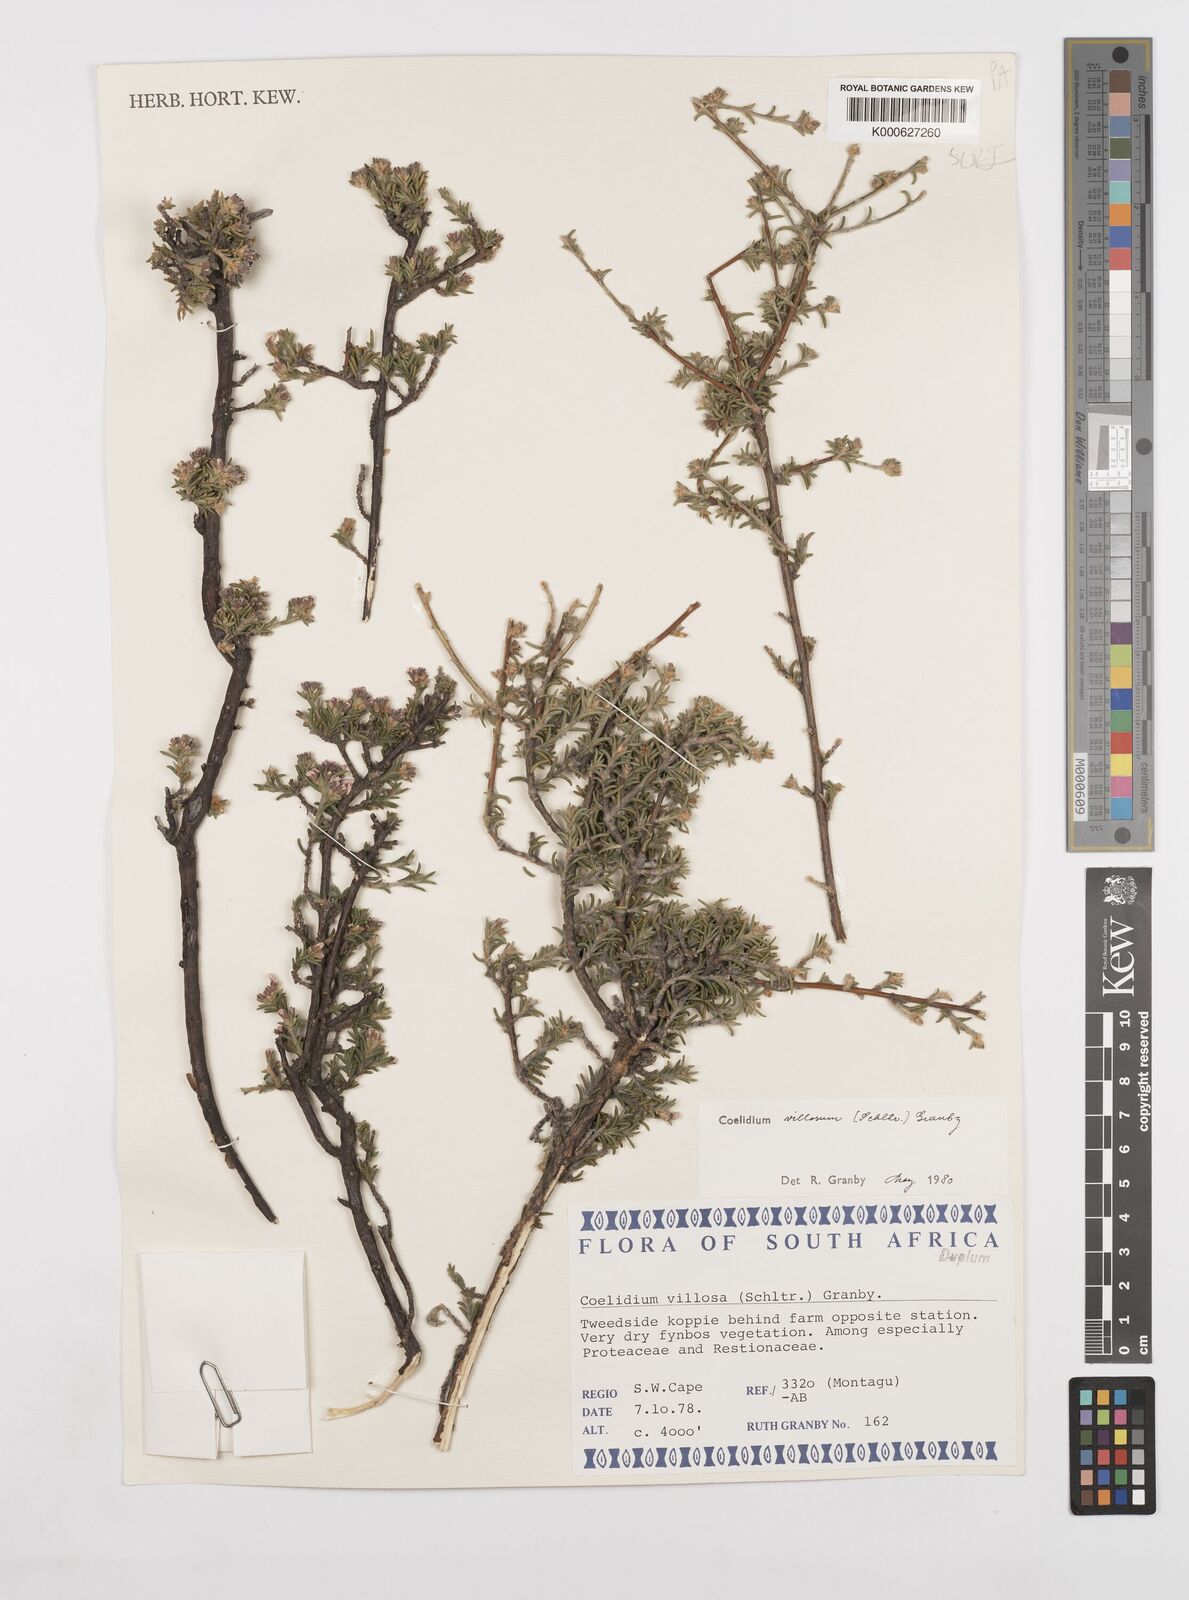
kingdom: Plantae
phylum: Tracheophyta
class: Magnoliopsida
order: Fabales
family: Fabaceae
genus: Amphithalea
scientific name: Amphithalea villosa
